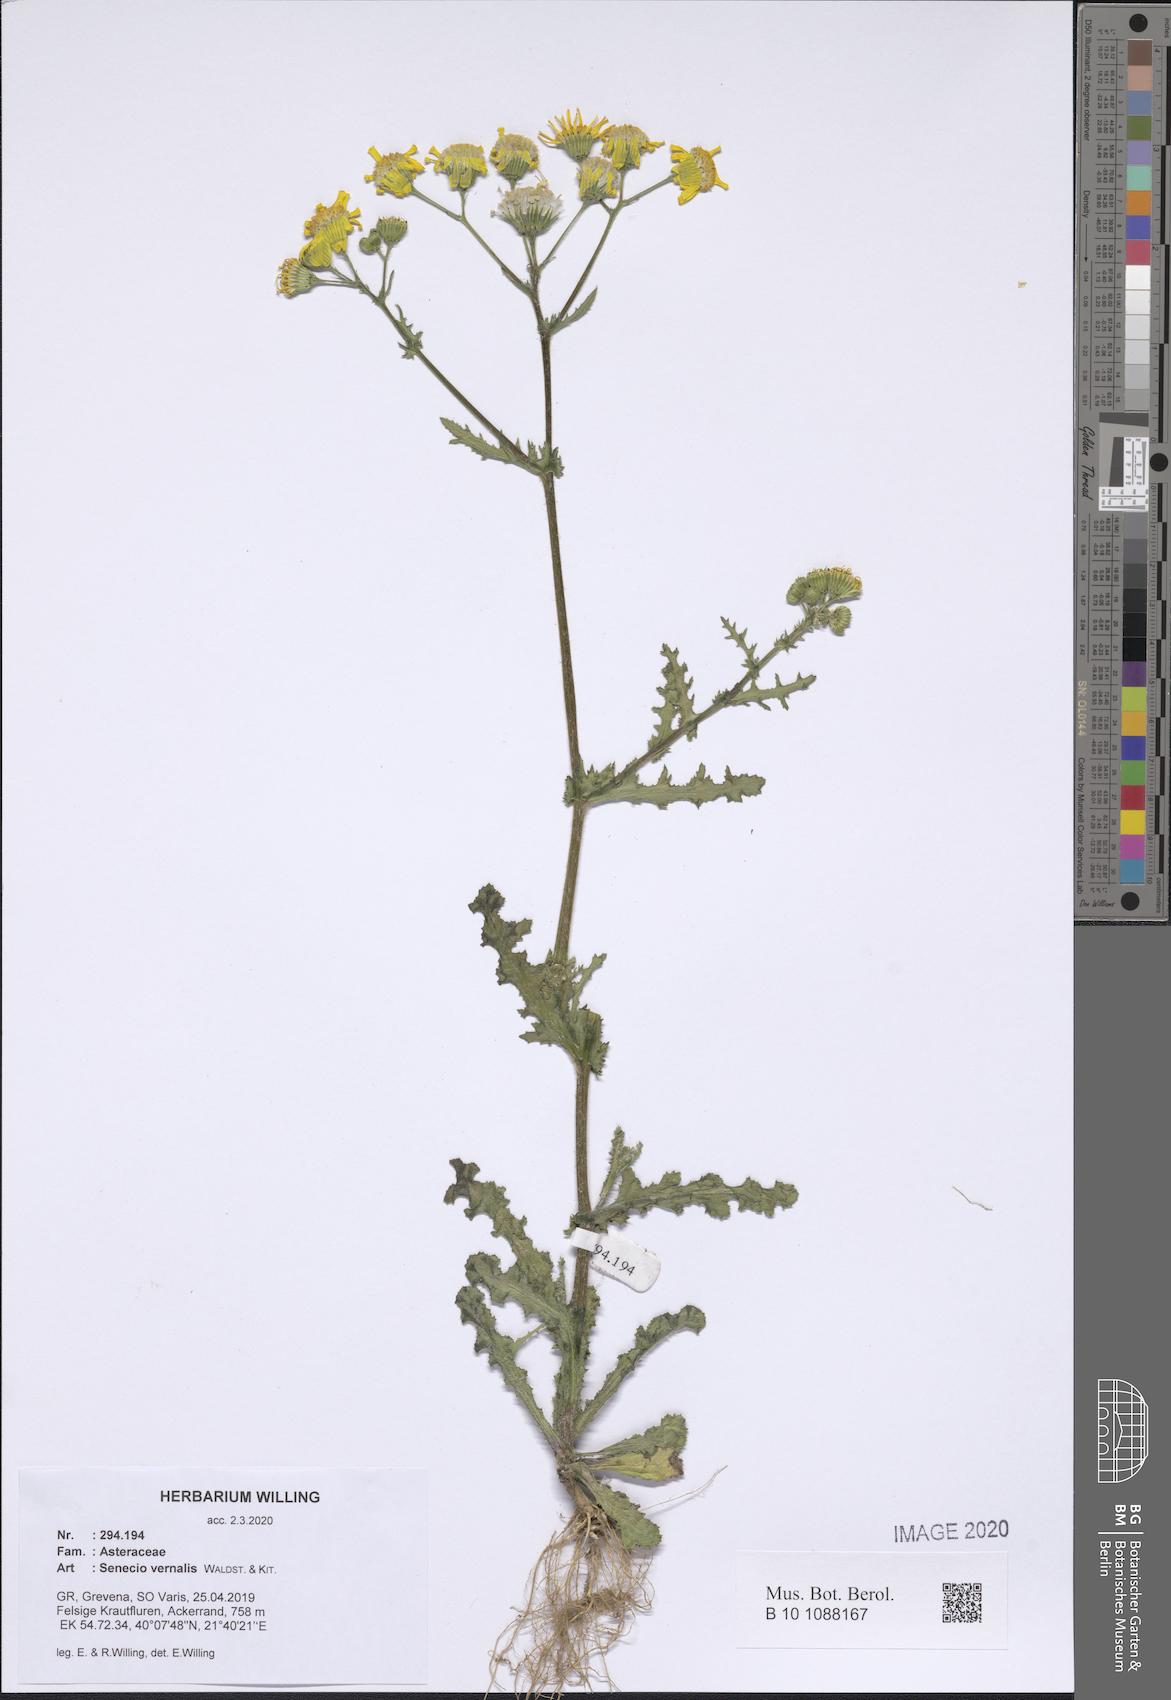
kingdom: Plantae
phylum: Tracheophyta
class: Magnoliopsida
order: Asterales
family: Asteraceae
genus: Senecio
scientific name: Senecio vernalis
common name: Eastern groundsel
